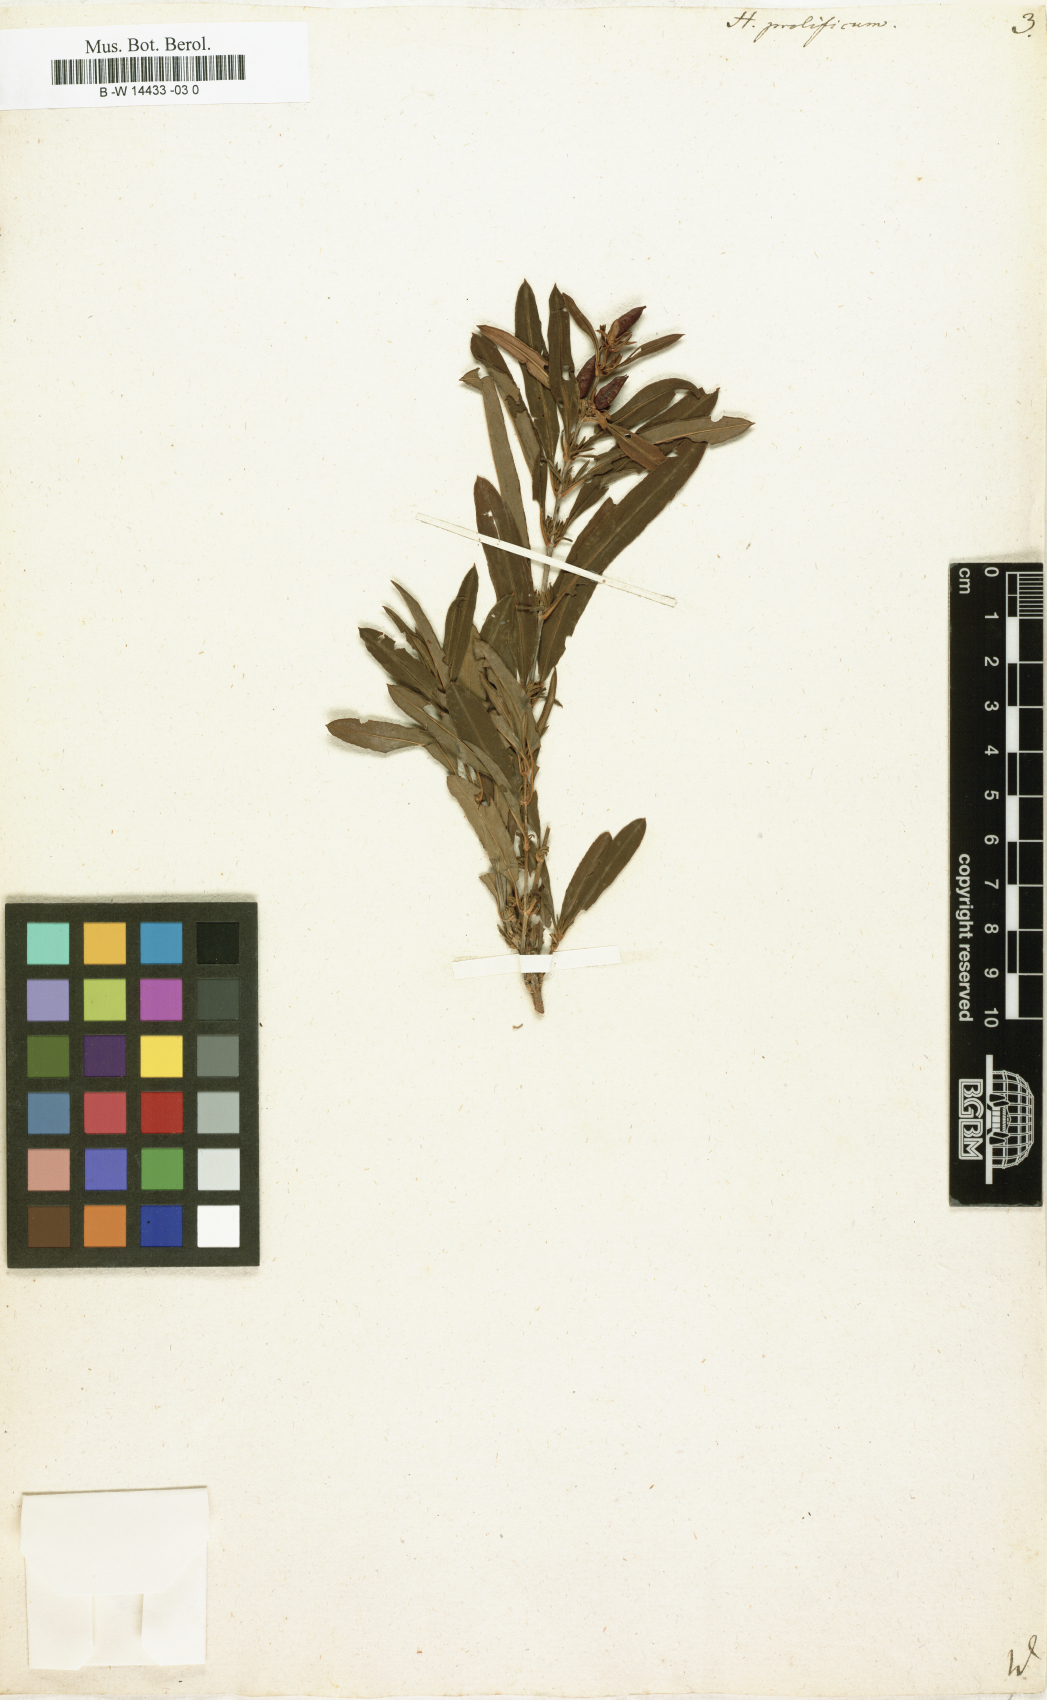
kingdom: Plantae
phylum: Tracheophyta
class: Magnoliopsida
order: Malpighiales
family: Hypericaceae
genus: Hypericum
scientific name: Hypericum prolificum
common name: Shrubby st. john's-wort
